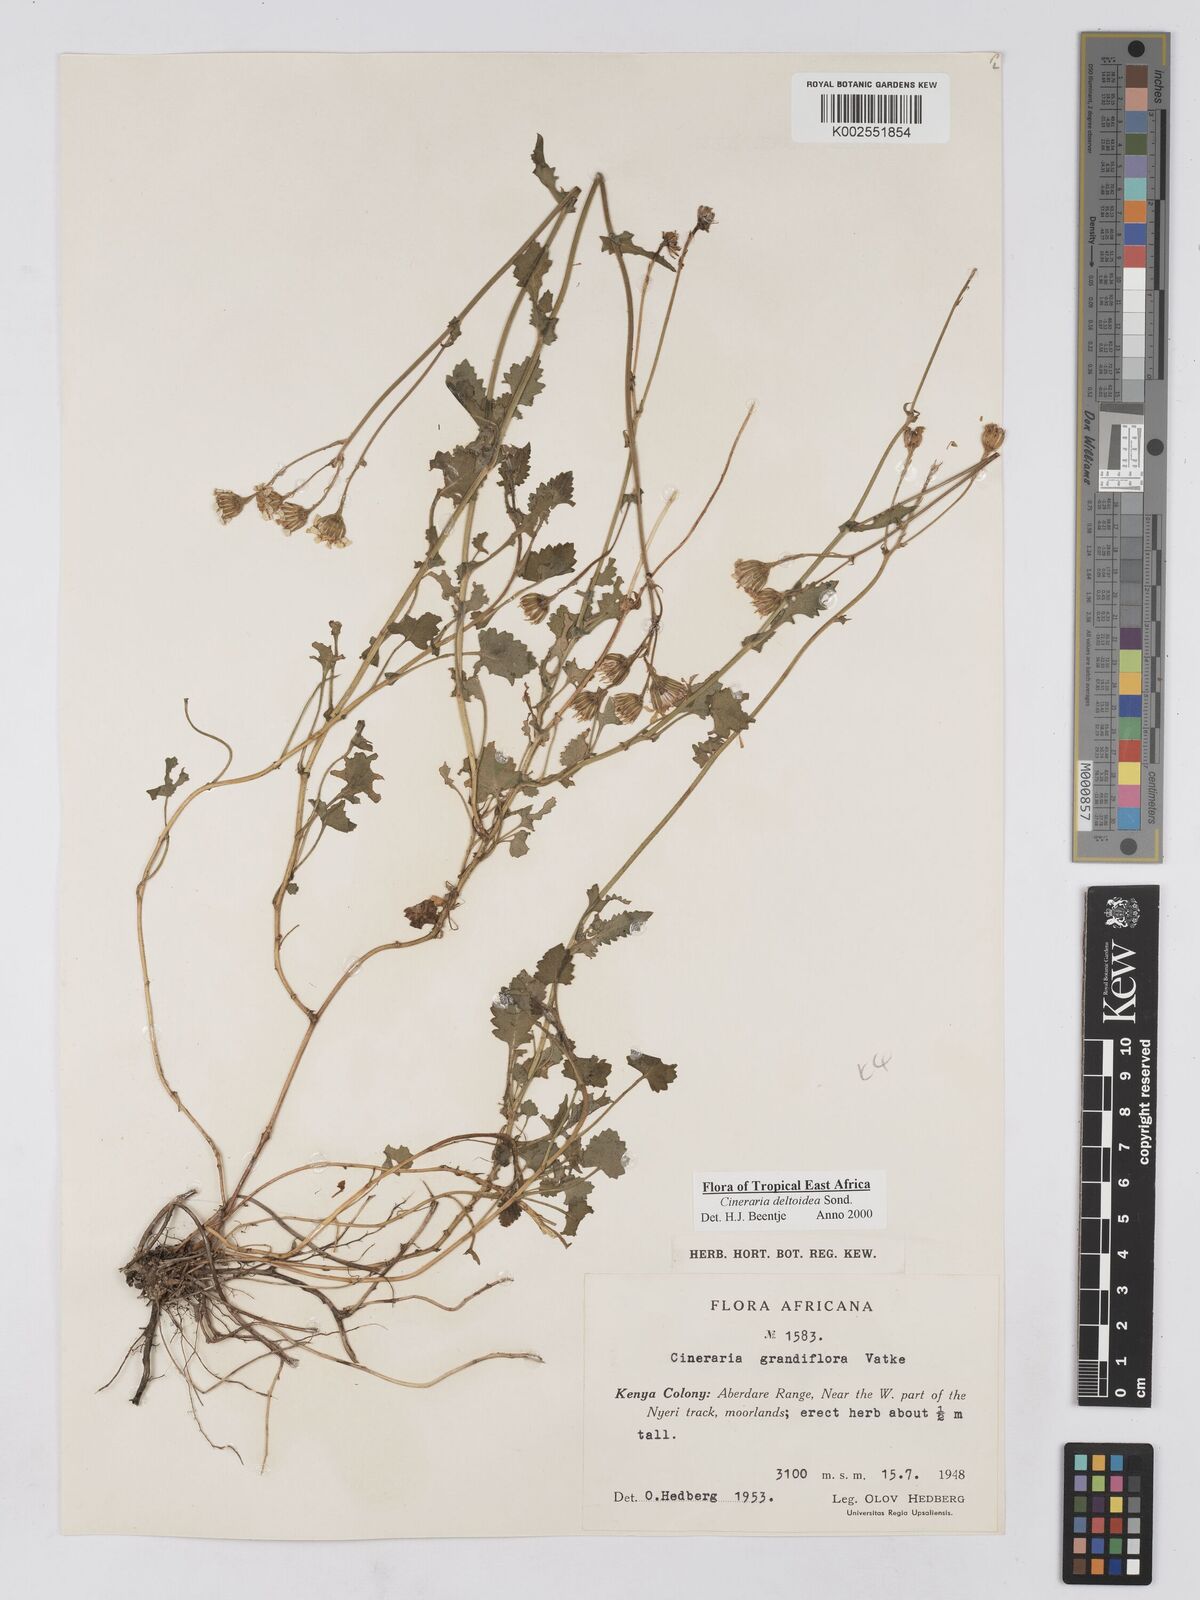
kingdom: Plantae
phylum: Tracheophyta
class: Magnoliopsida
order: Asterales
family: Asteraceae
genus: Cineraria
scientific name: Cineraria deltoidea
